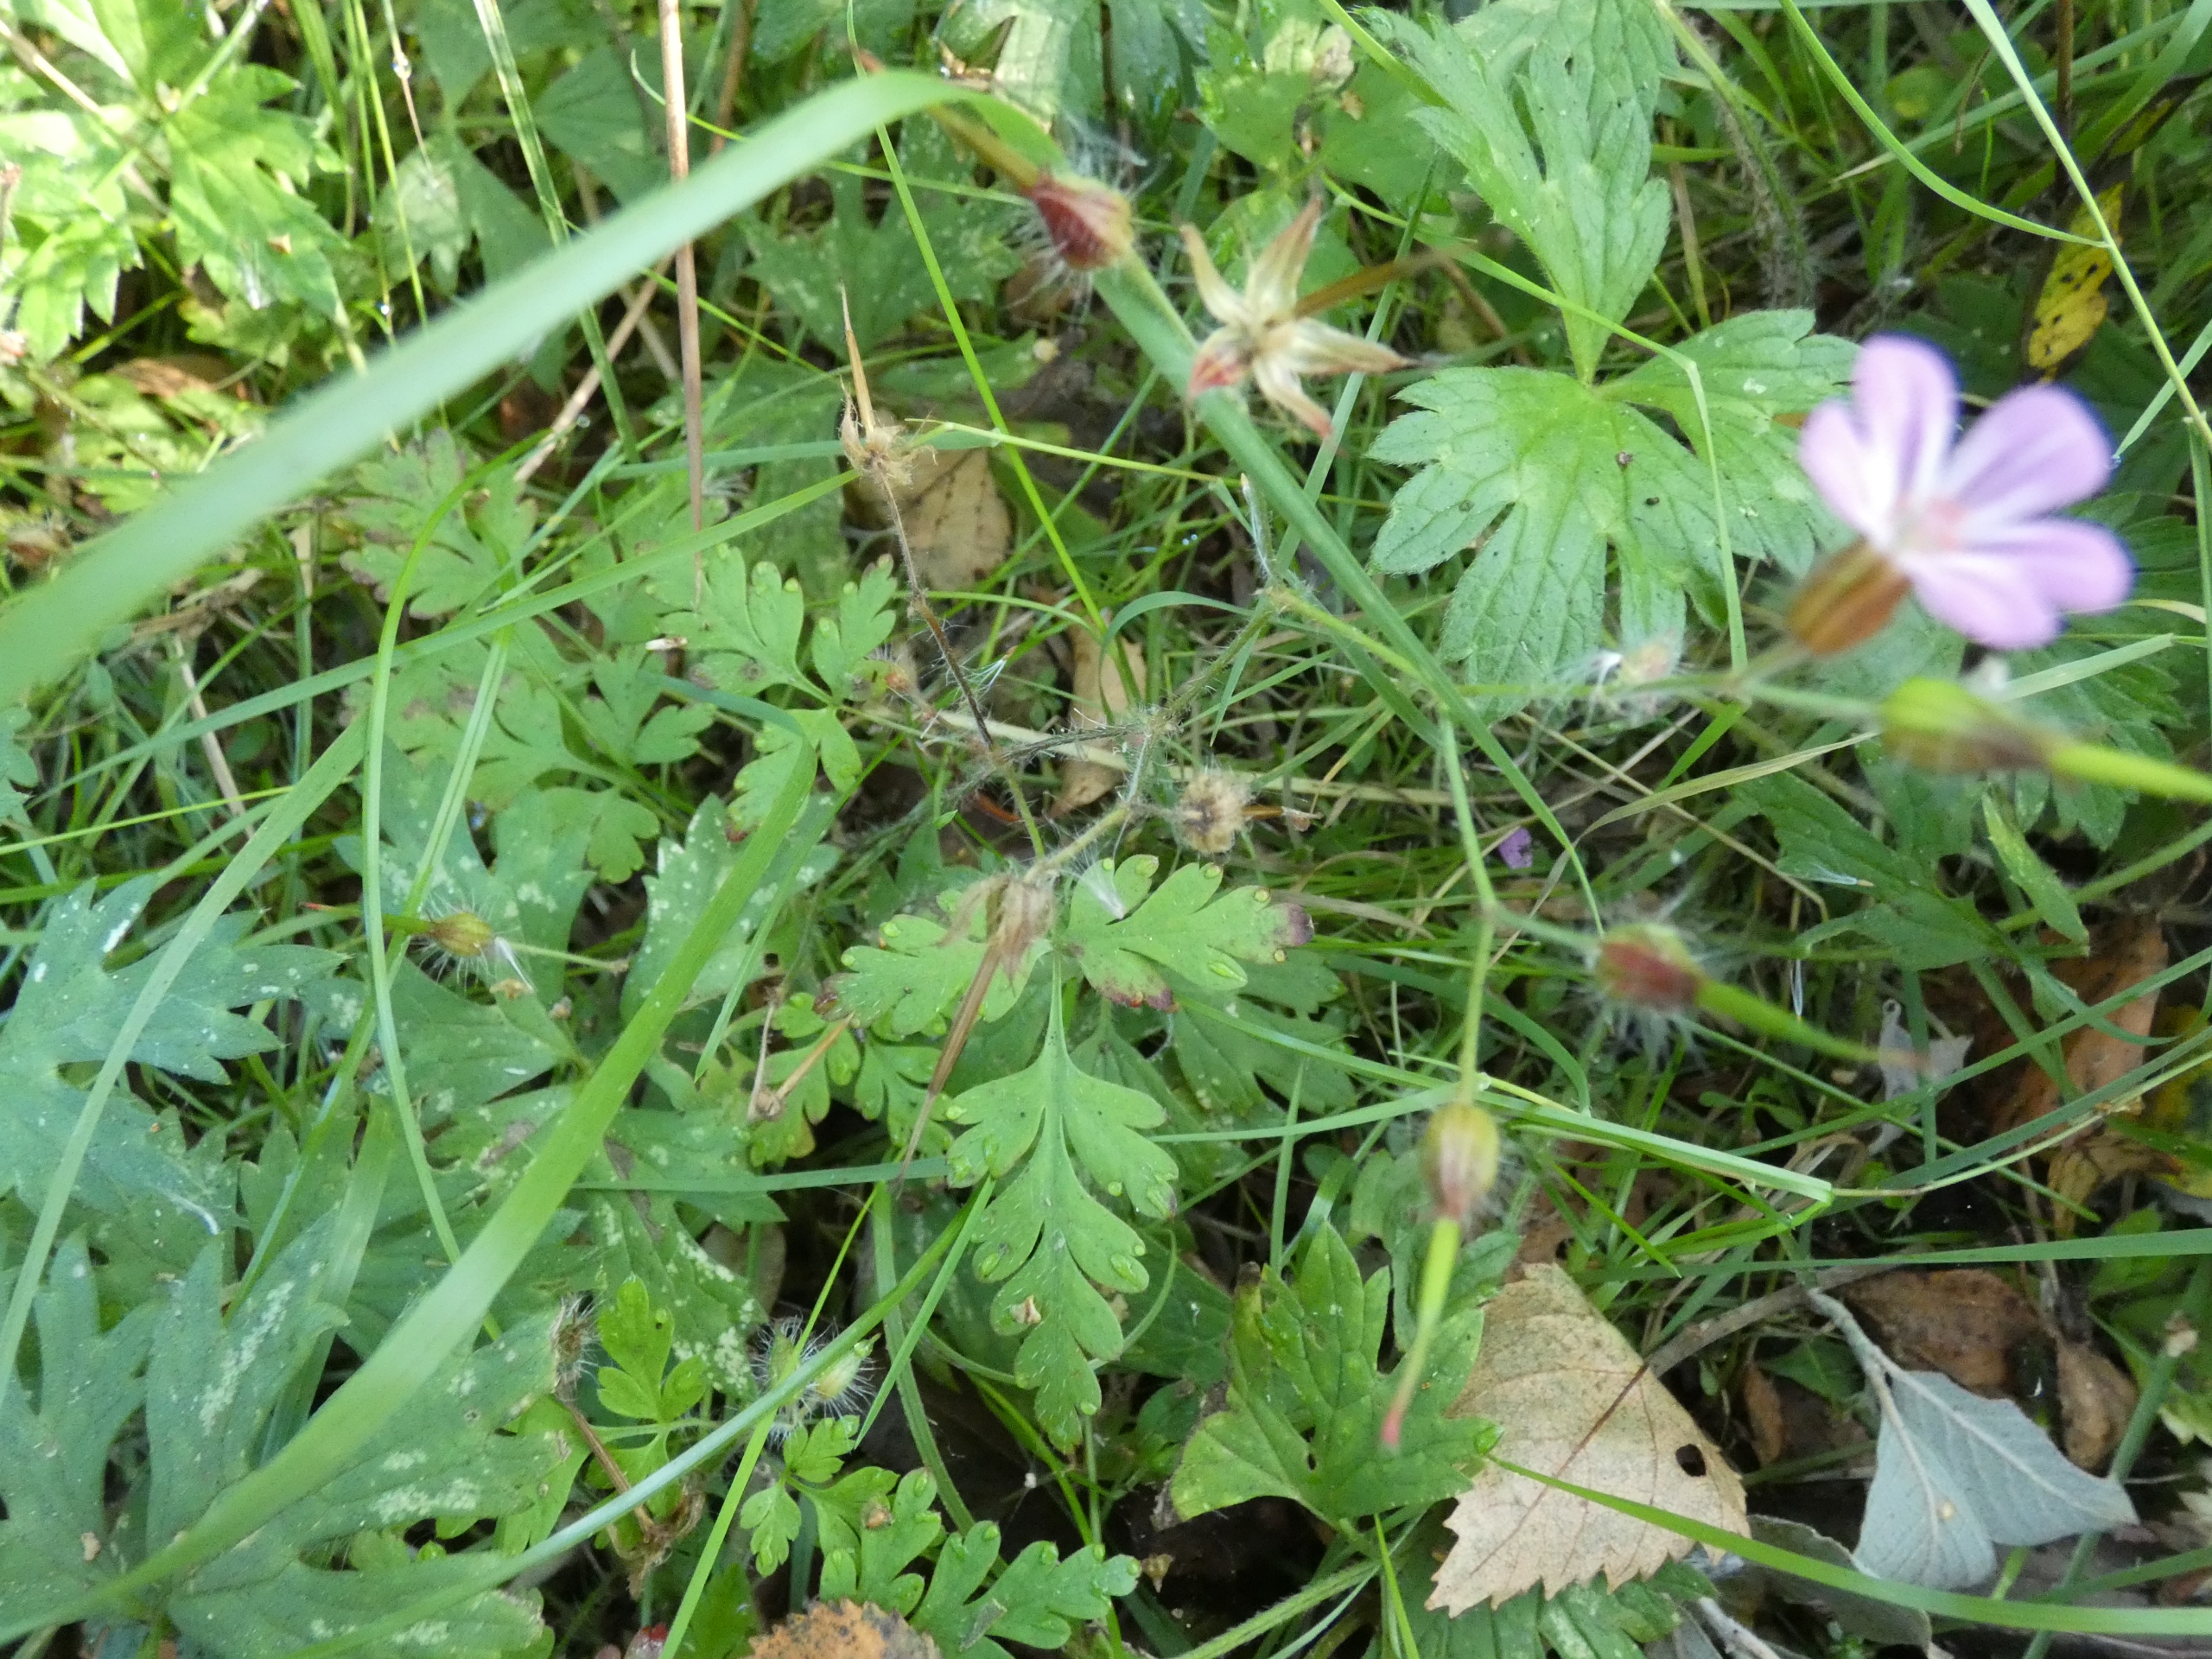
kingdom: Plantae
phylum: Tracheophyta
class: Magnoliopsida
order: Geraniales
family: Geraniaceae
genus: Geranium
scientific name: Geranium robertianum
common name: Stinkende storkenæb
